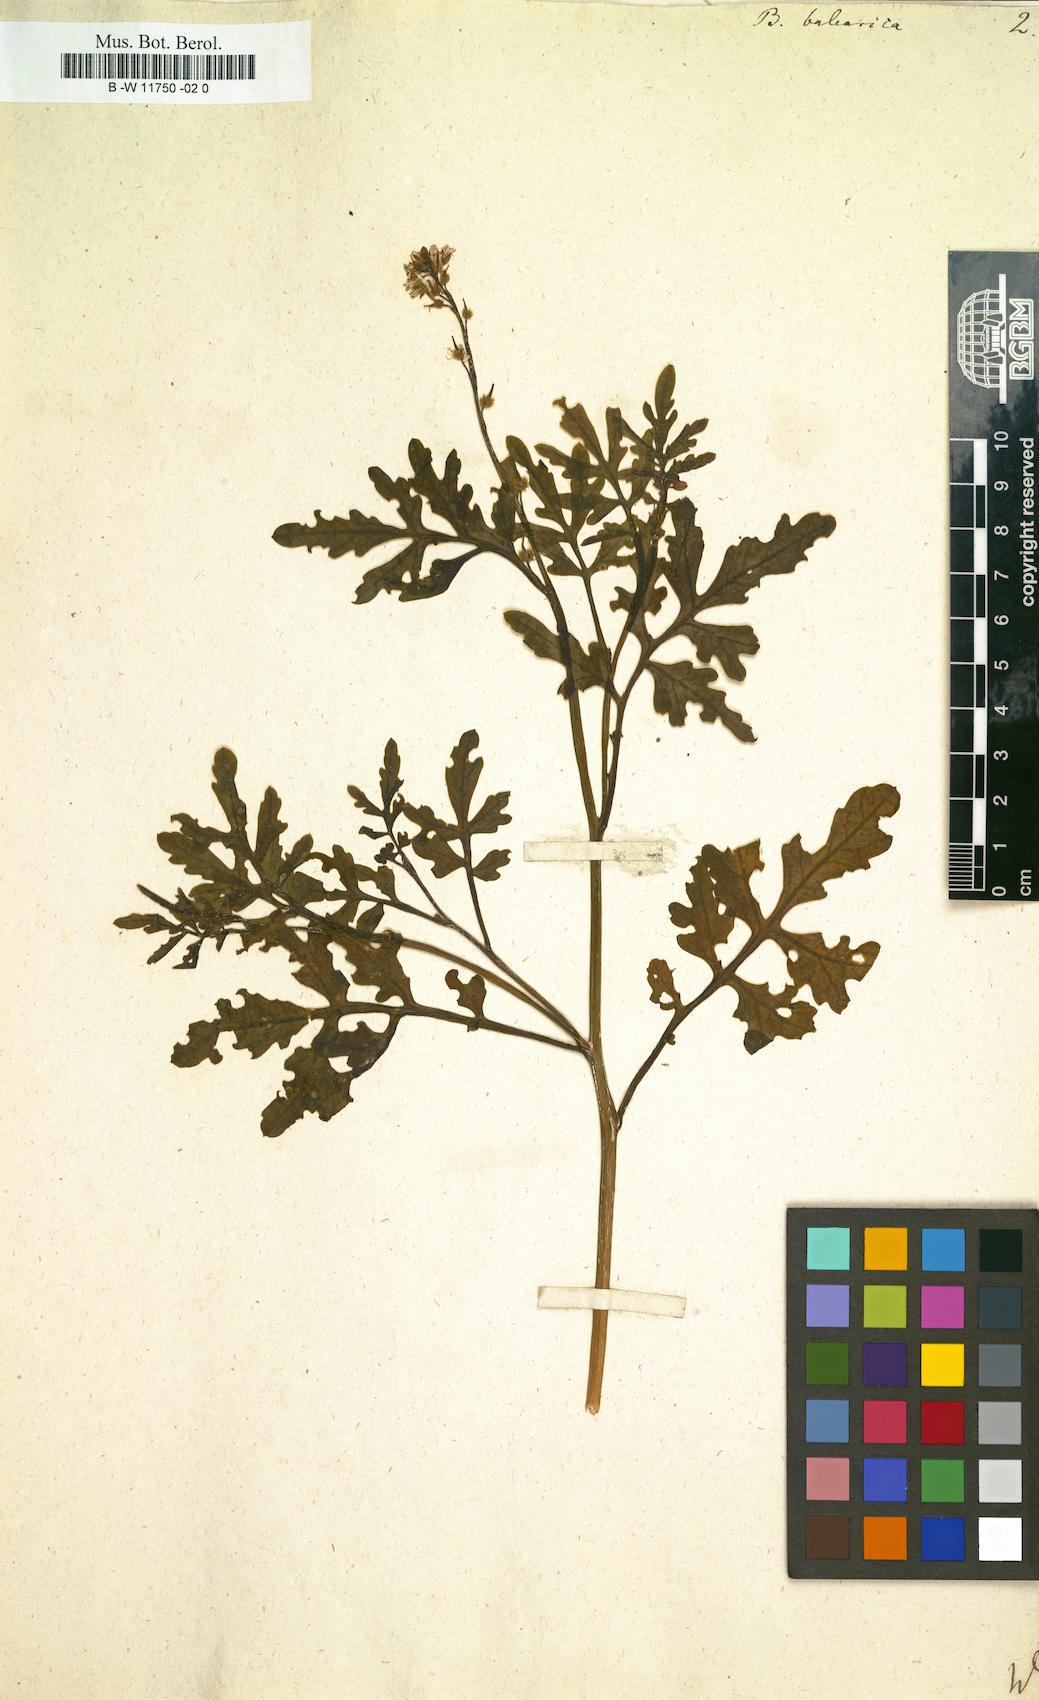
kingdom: Plantae
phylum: Tracheophyta
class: Magnoliopsida
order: Brassicales
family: Brassicaceae
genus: Succowia
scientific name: Succowia balearica
